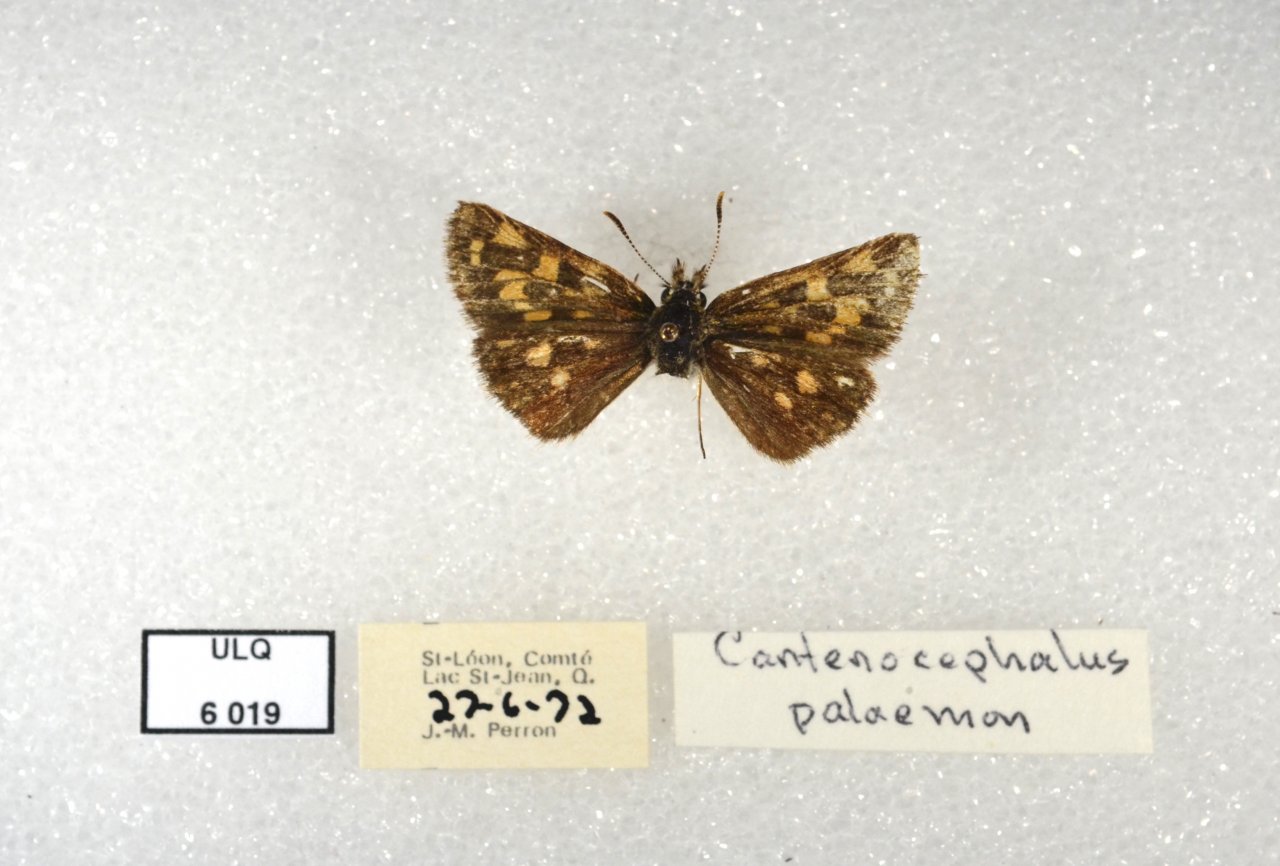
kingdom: Animalia
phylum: Arthropoda
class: Insecta
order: Lepidoptera
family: Hesperiidae
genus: Carterocephalus
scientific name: Carterocephalus palaemon
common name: Chequered Skipper
